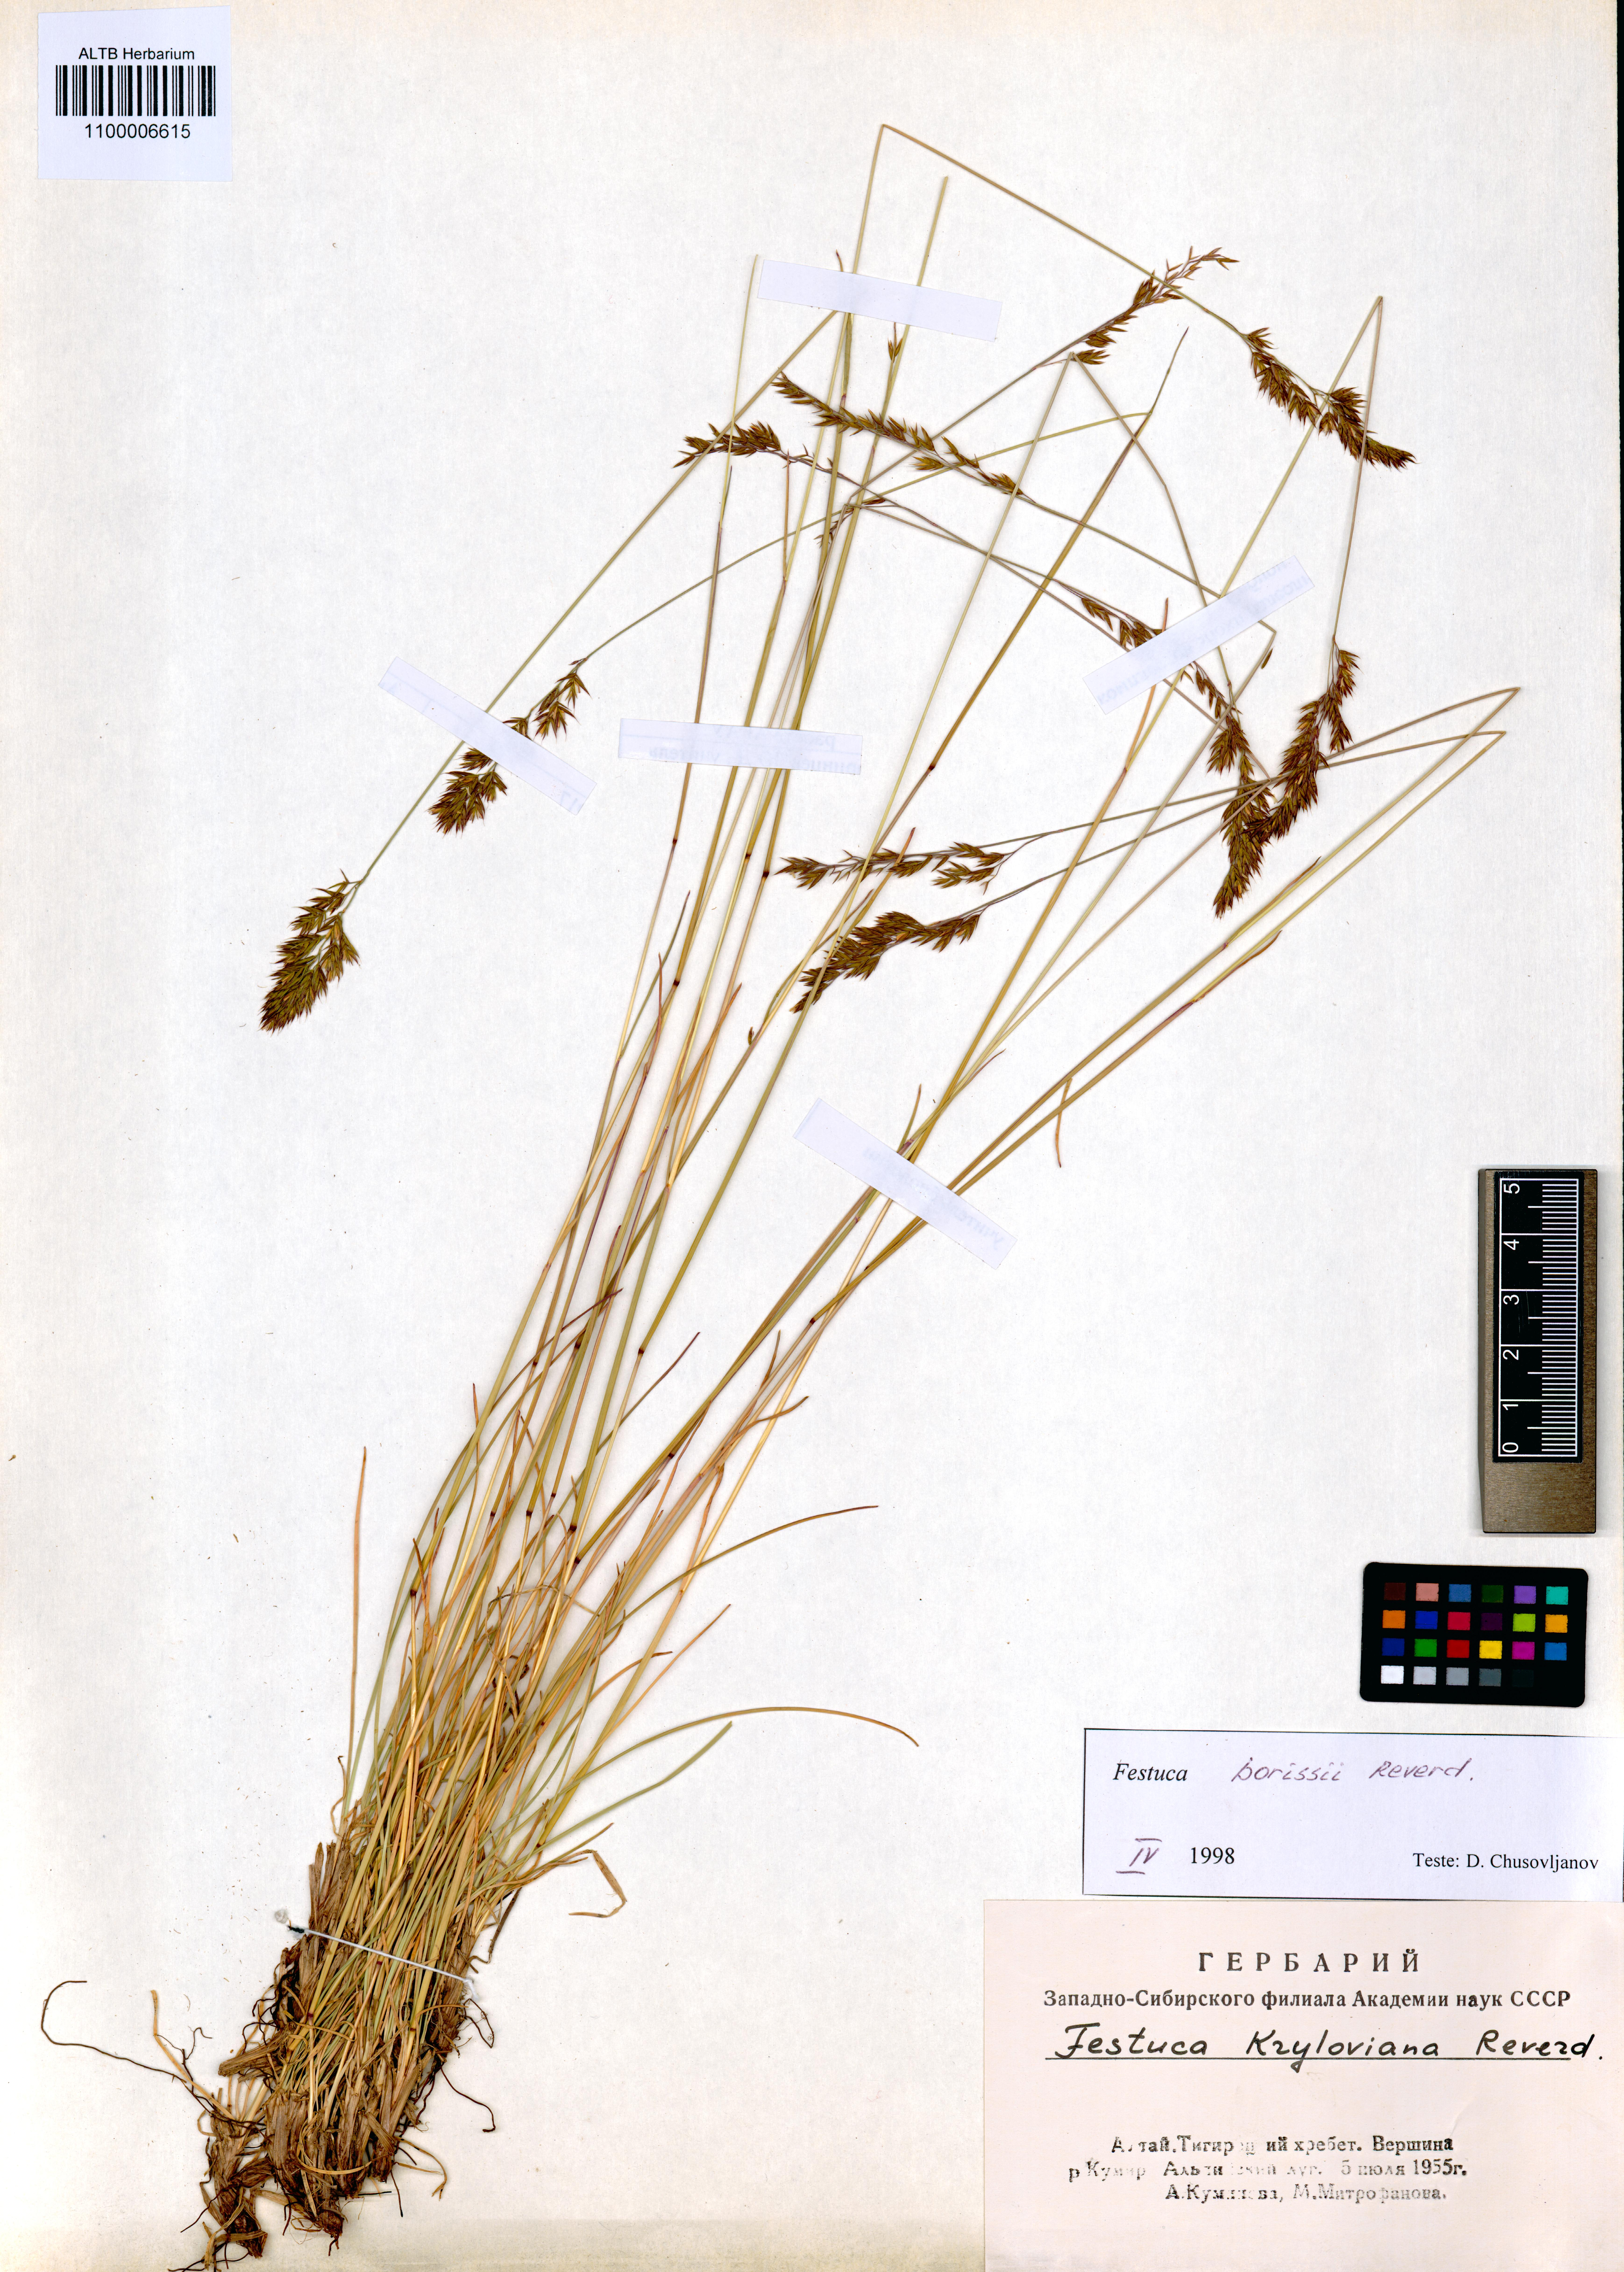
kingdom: Plantae
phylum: Tracheophyta
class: Liliopsida
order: Poales
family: Poaceae
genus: Festuca
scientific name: Festuca borissii
